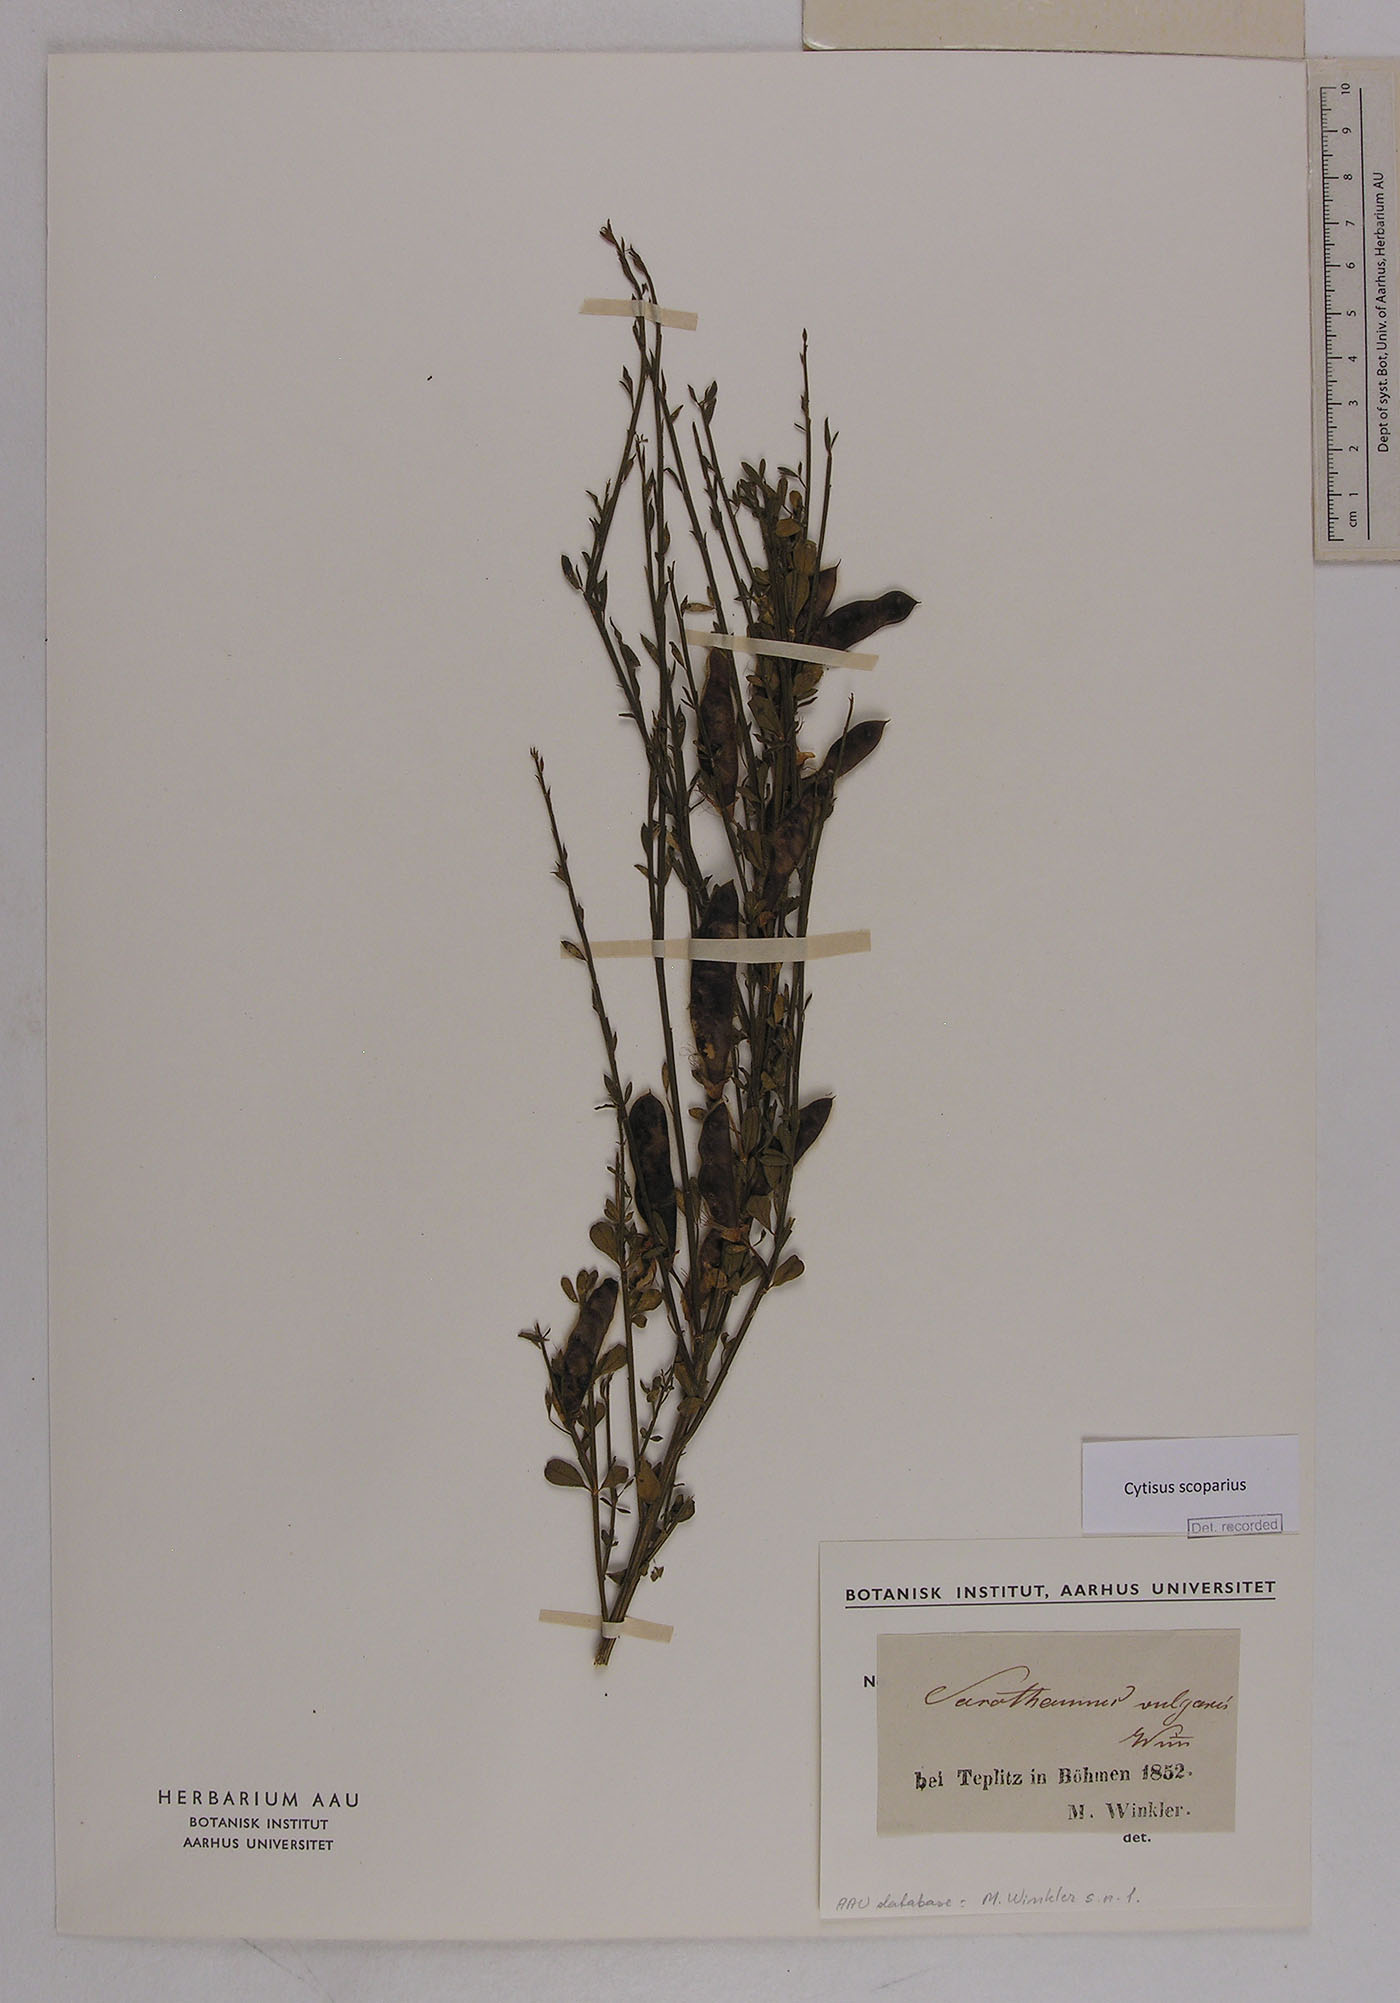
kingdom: Plantae
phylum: Tracheophyta
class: Magnoliopsida
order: Fabales
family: Fabaceae
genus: Cytisus
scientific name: Cytisus scoparius
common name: Scotch broom
